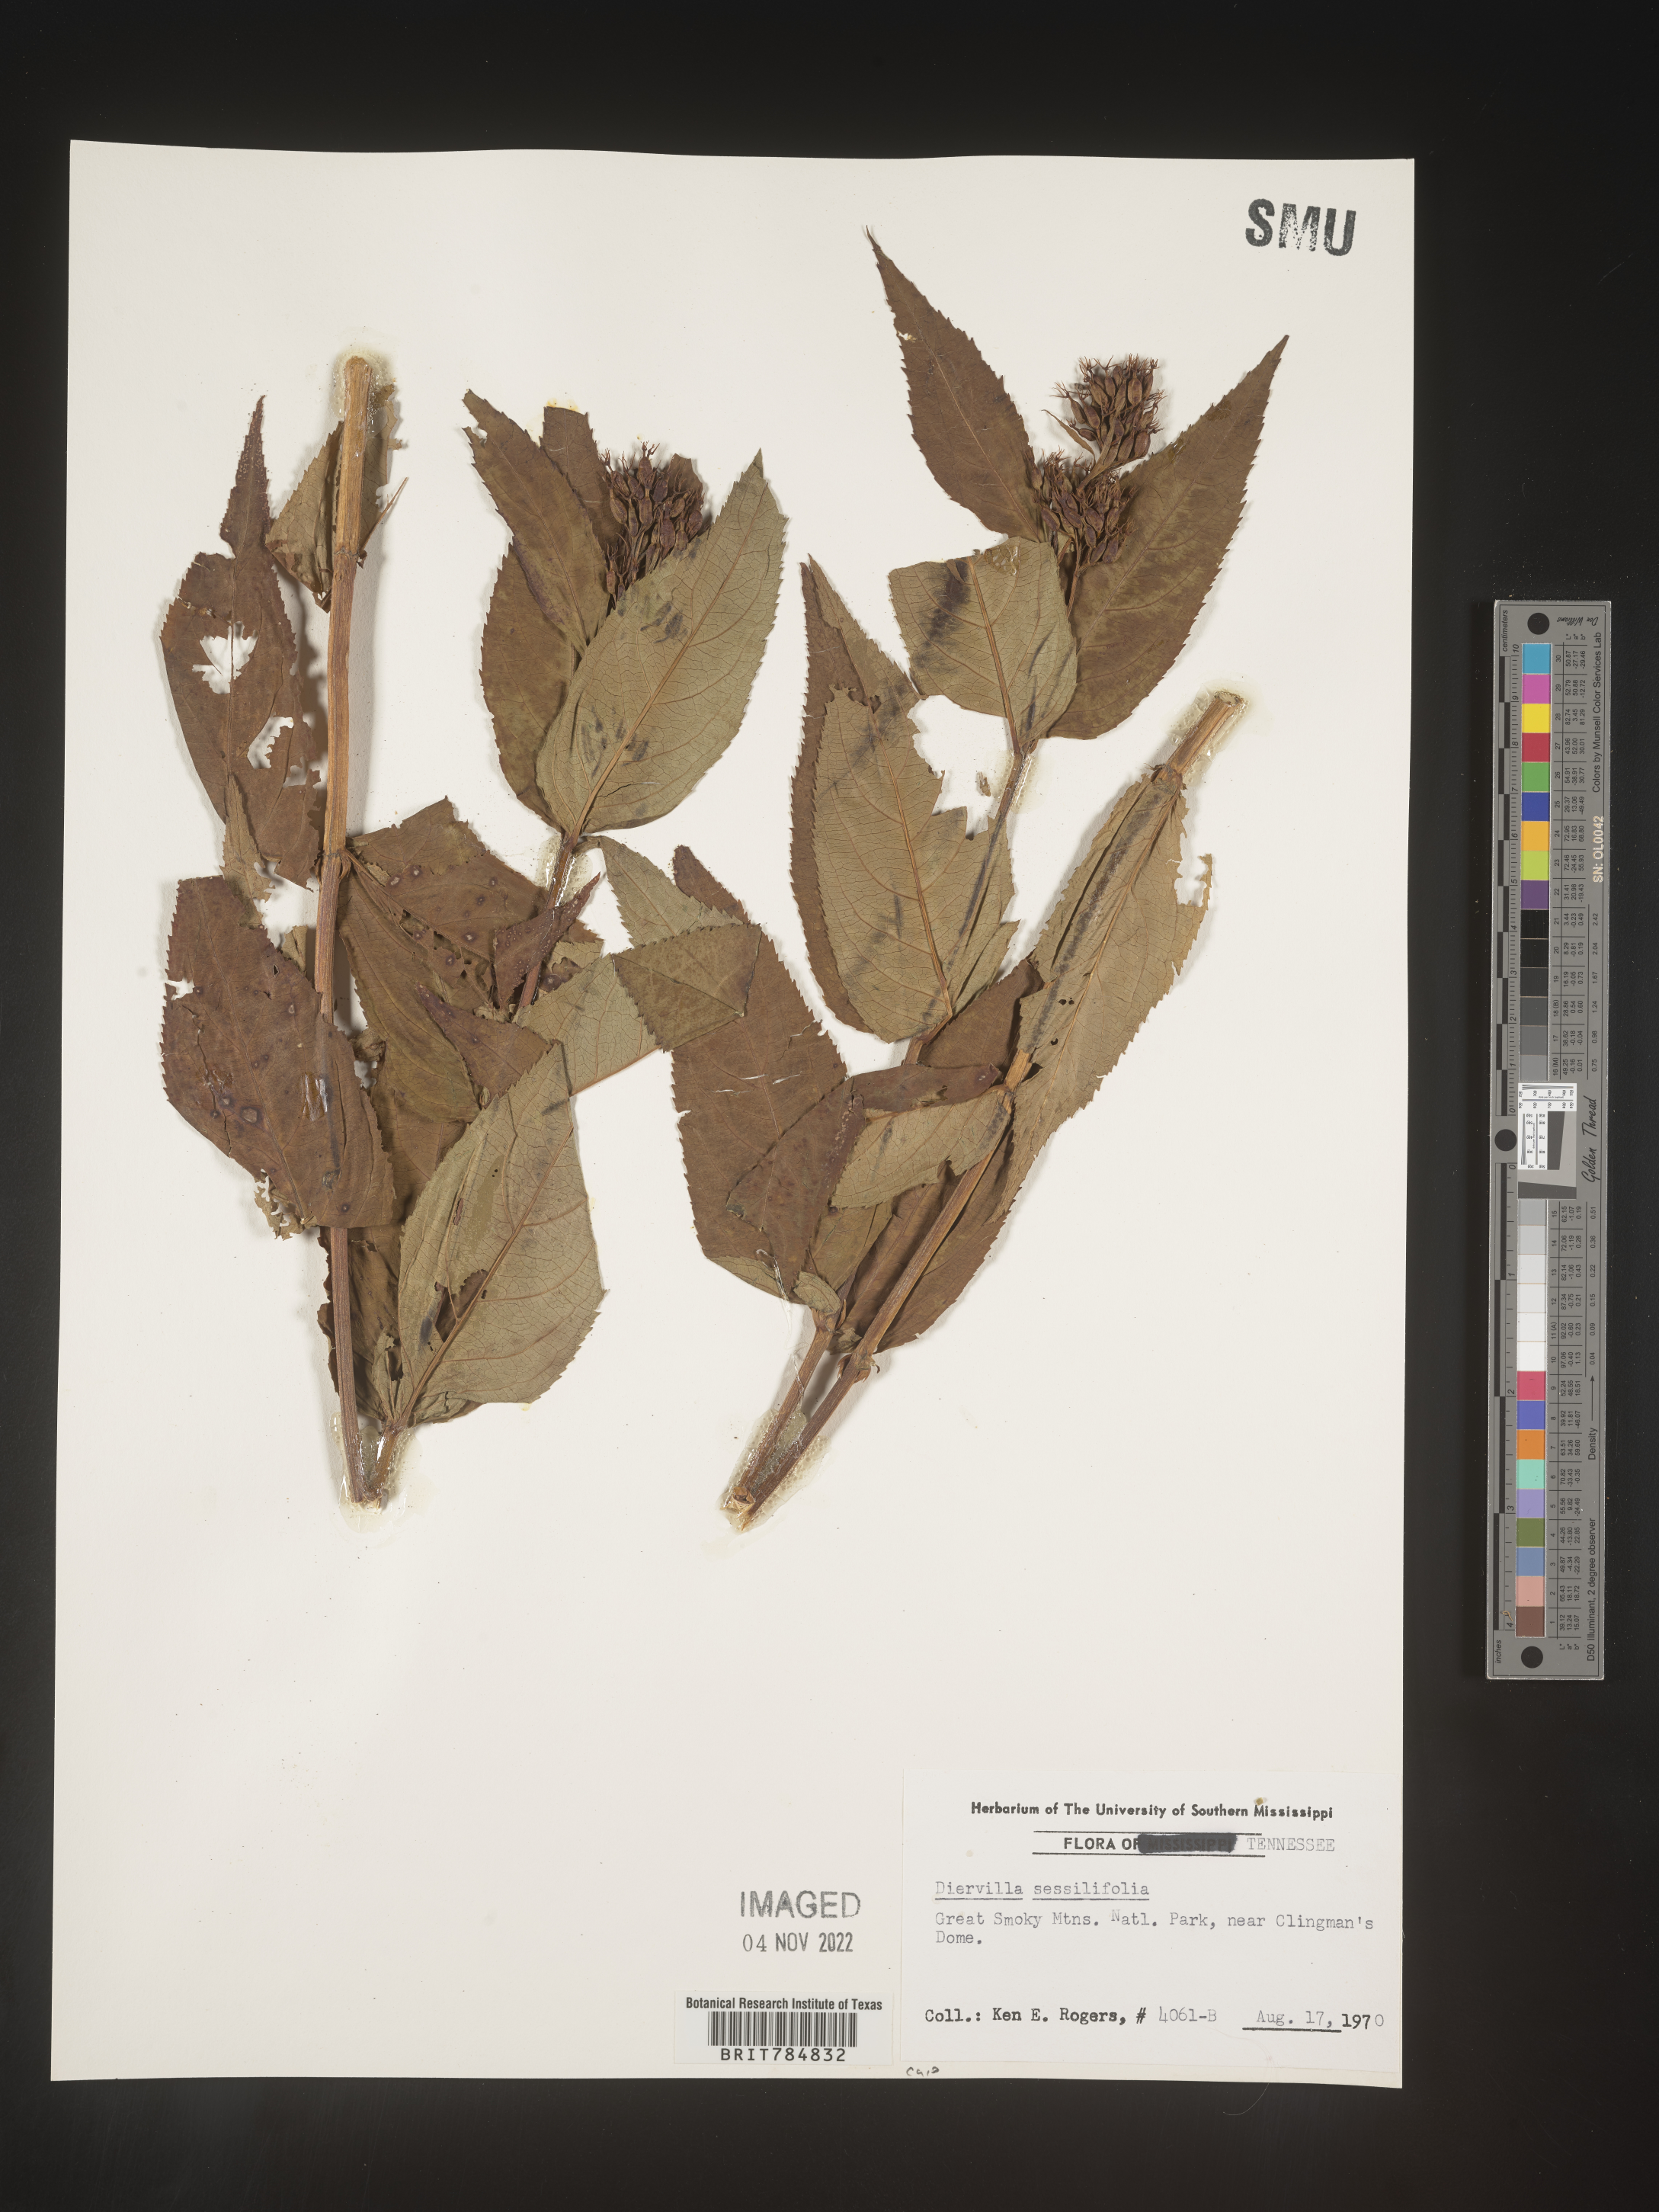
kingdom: Plantae
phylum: Tracheophyta
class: Magnoliopsida
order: Dipsacales
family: Caprifoliaceae
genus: Diervilla
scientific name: Diervilla
